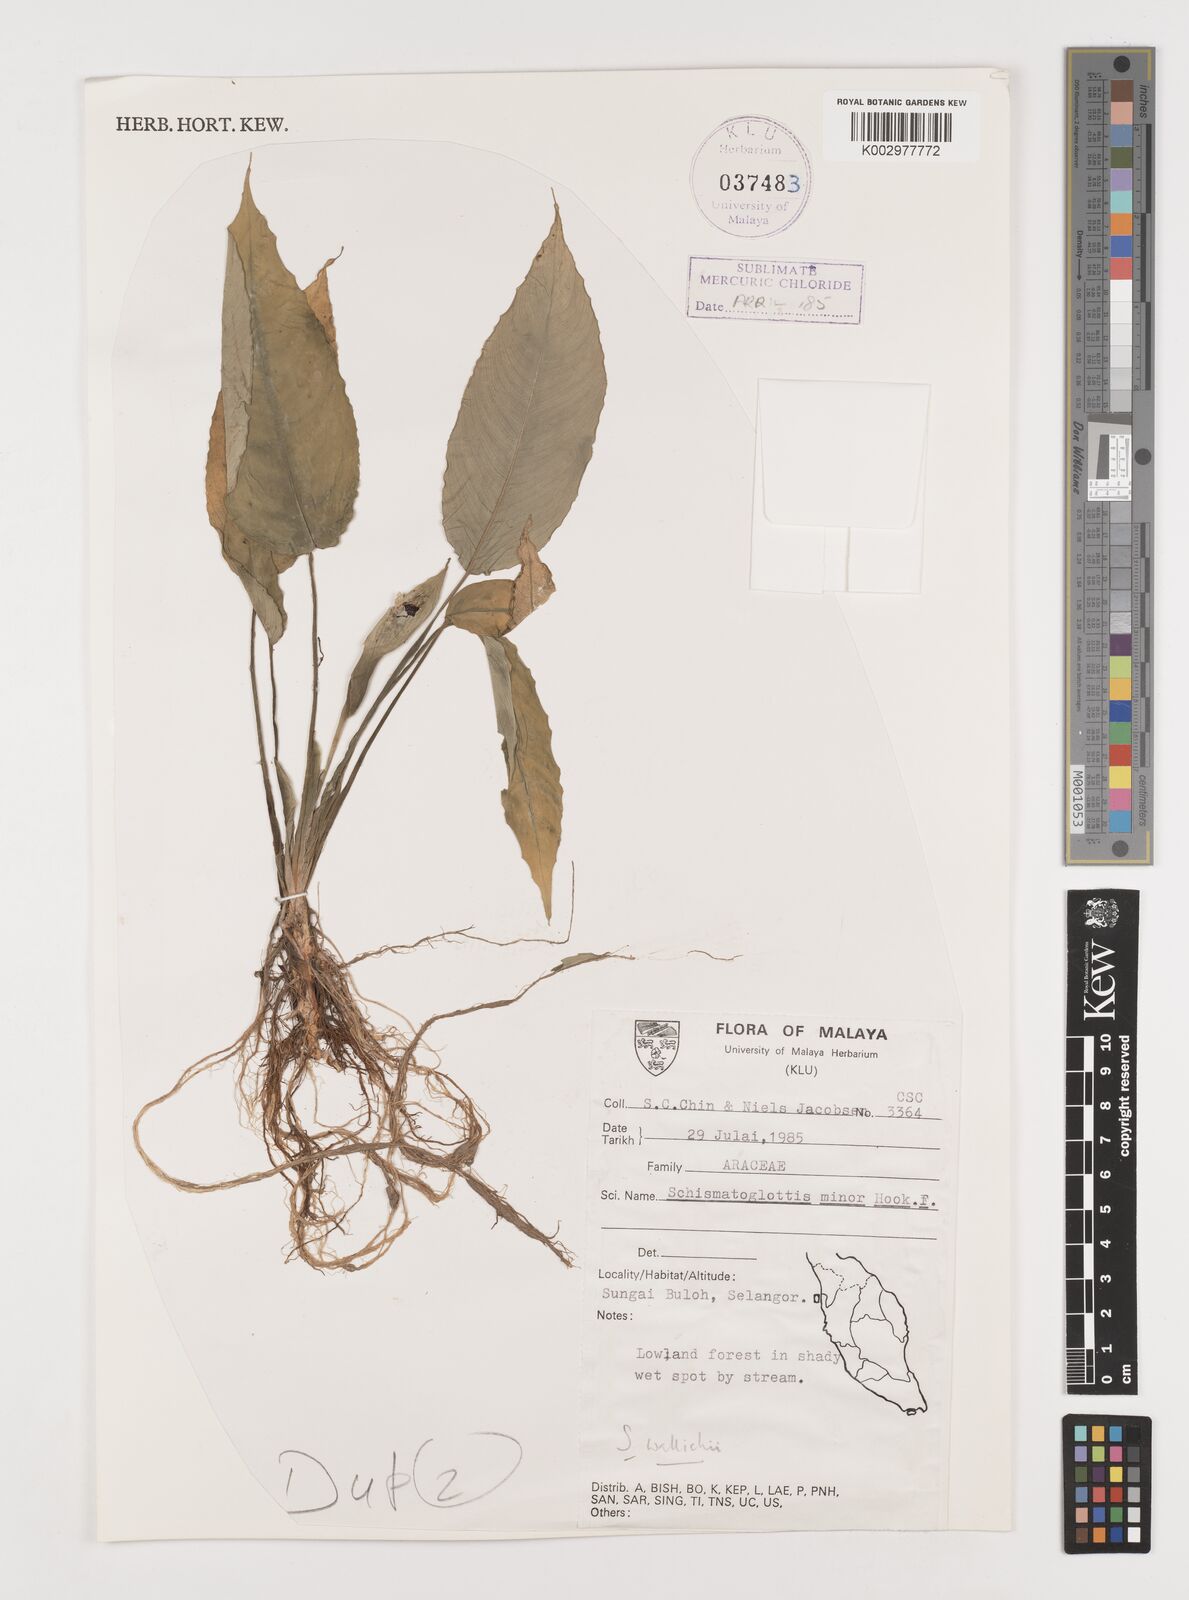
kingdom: Plantae
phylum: Tracheophyta
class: Liliopsida
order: Alismatales
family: Araceae
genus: Schismatoglottis
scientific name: Schismatoglottis wallichii
